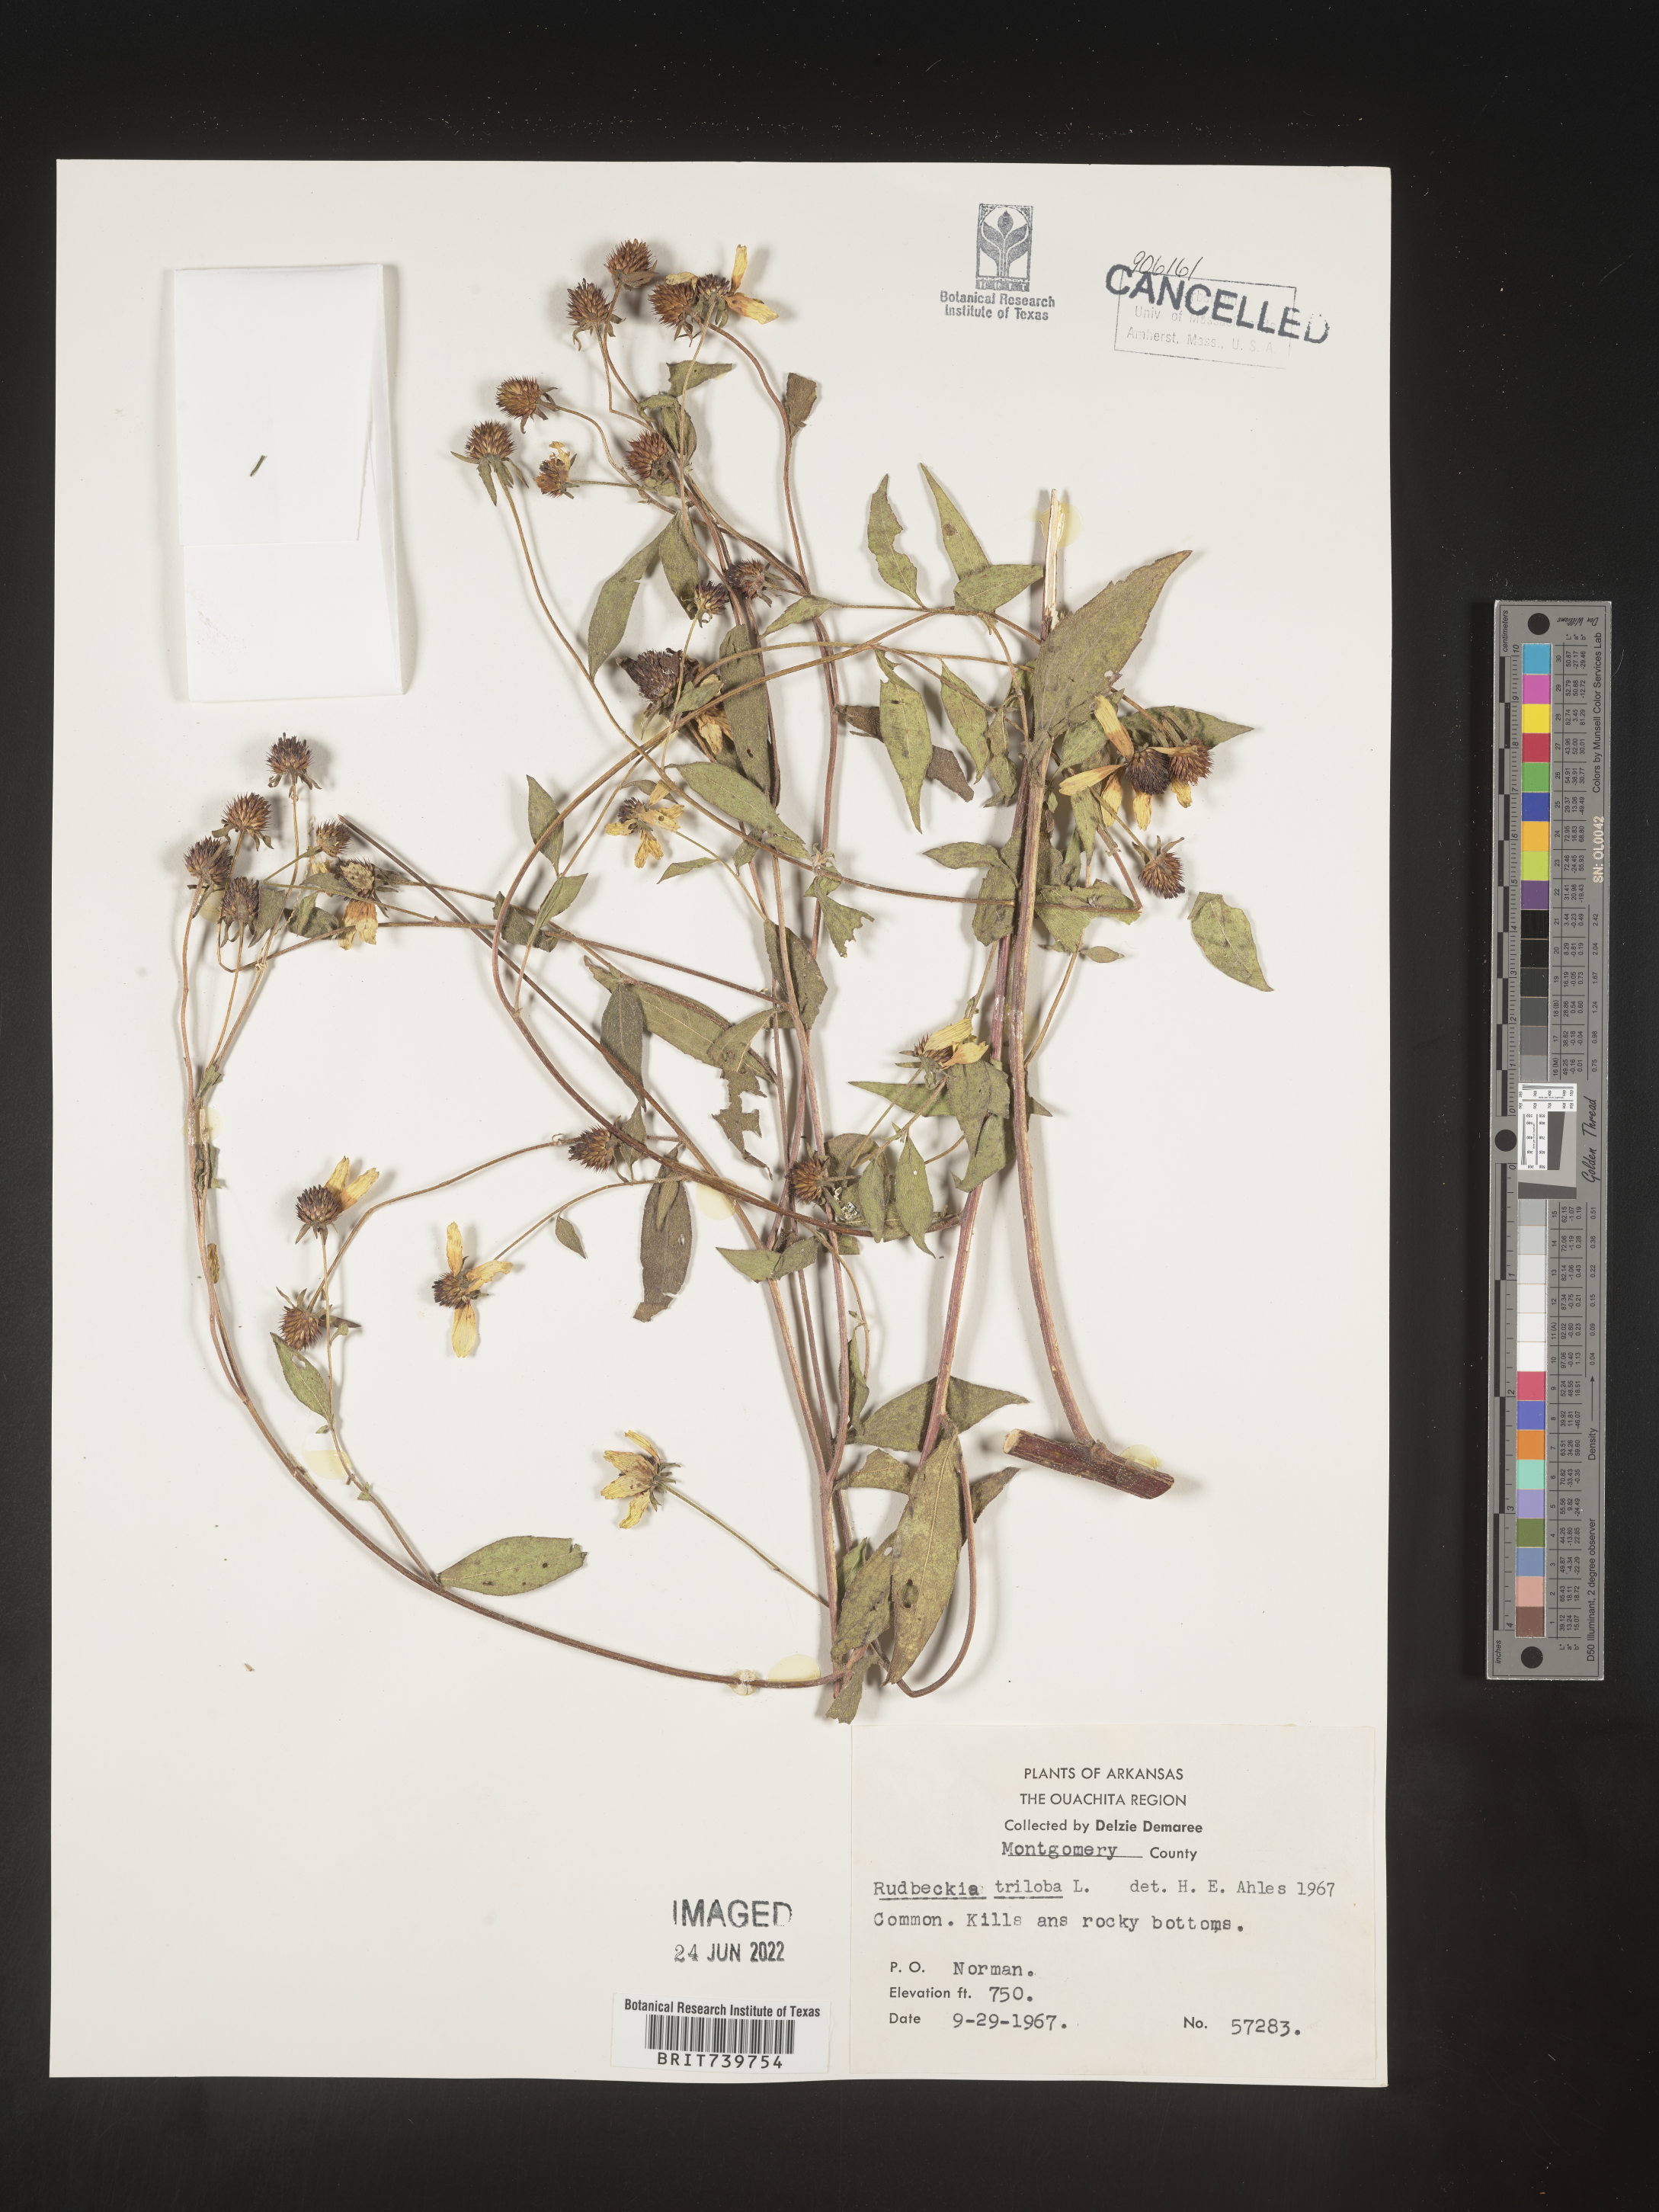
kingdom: Plantae
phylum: Tracheophyta
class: Magnoliopsida
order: Asterales
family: Asteraceae
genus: Rudbeckia
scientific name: Rudbeckia triloba
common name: Thin-leaved coneflower
